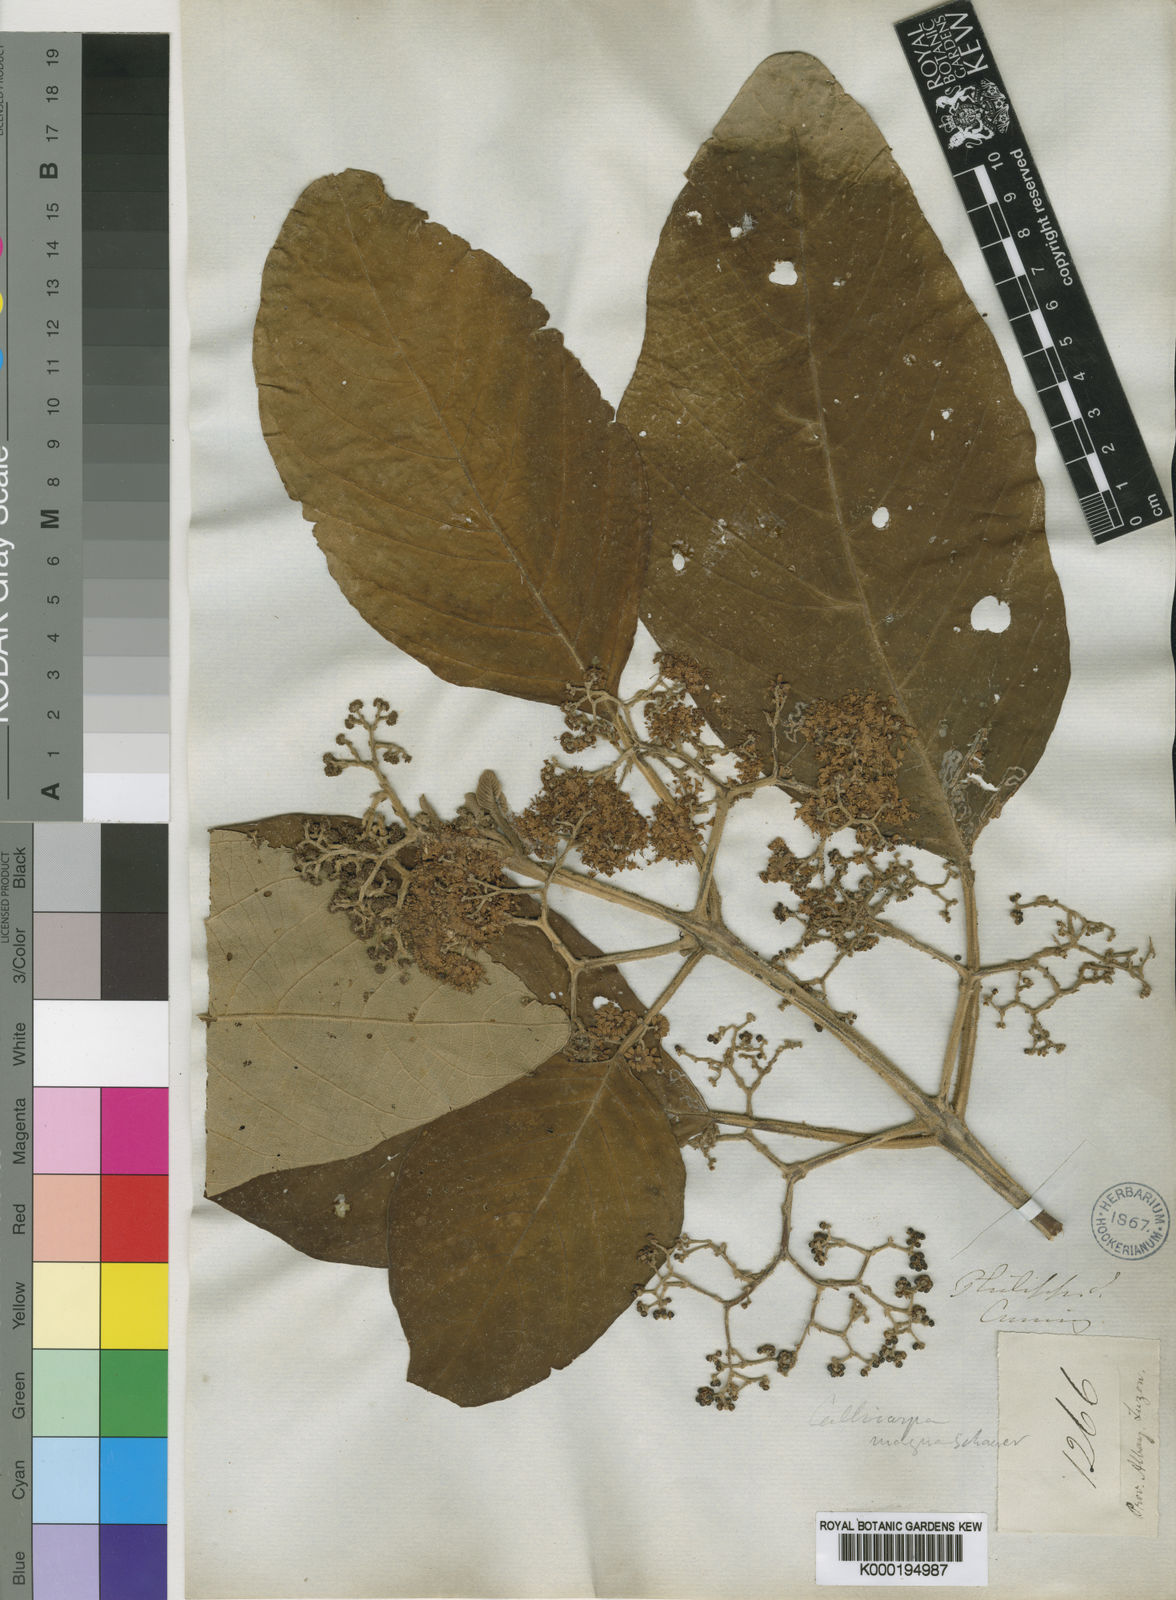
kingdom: Plantae
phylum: Tracheophyta
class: Magnoliopsida
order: Lamiales
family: Lamiaceae
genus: Callicarpa
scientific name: Callicarpa arborea
